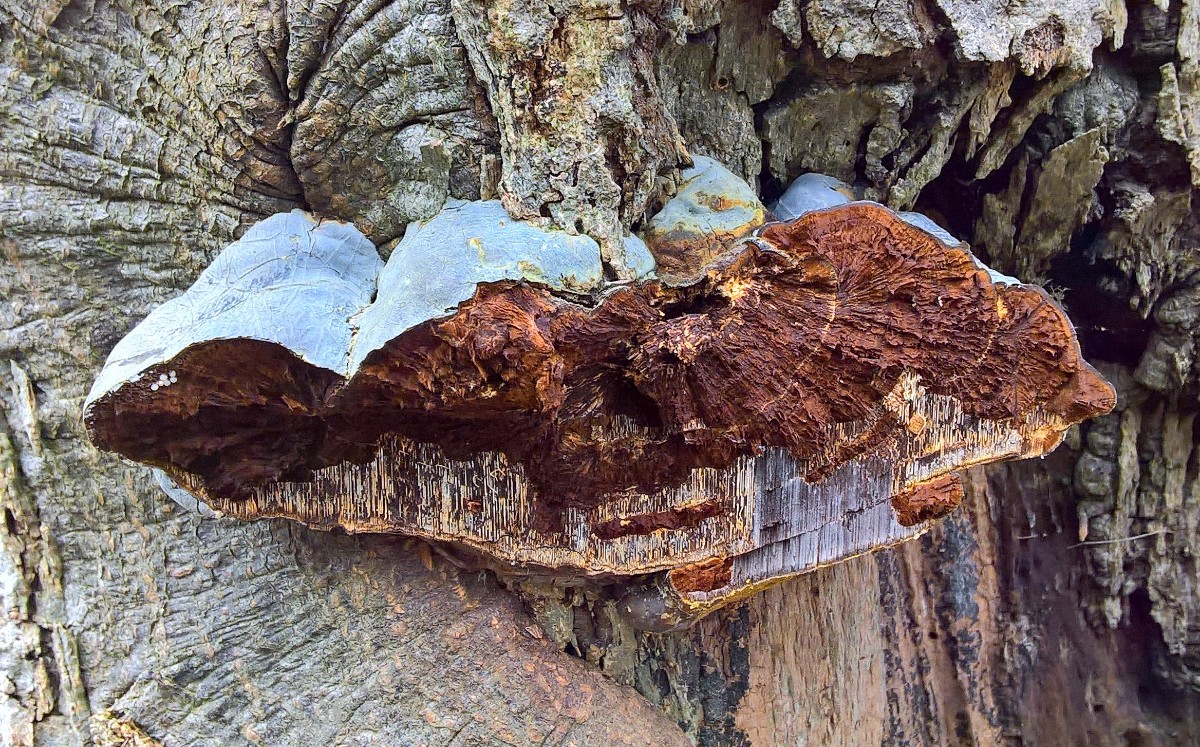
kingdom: Fungi
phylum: Basidiomycota
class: Agaricomycetes
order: Polyporales
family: Polyporaceae
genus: Ganoderma
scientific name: Ganoderma pfeifferi
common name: kobberrød lakporesvamp
